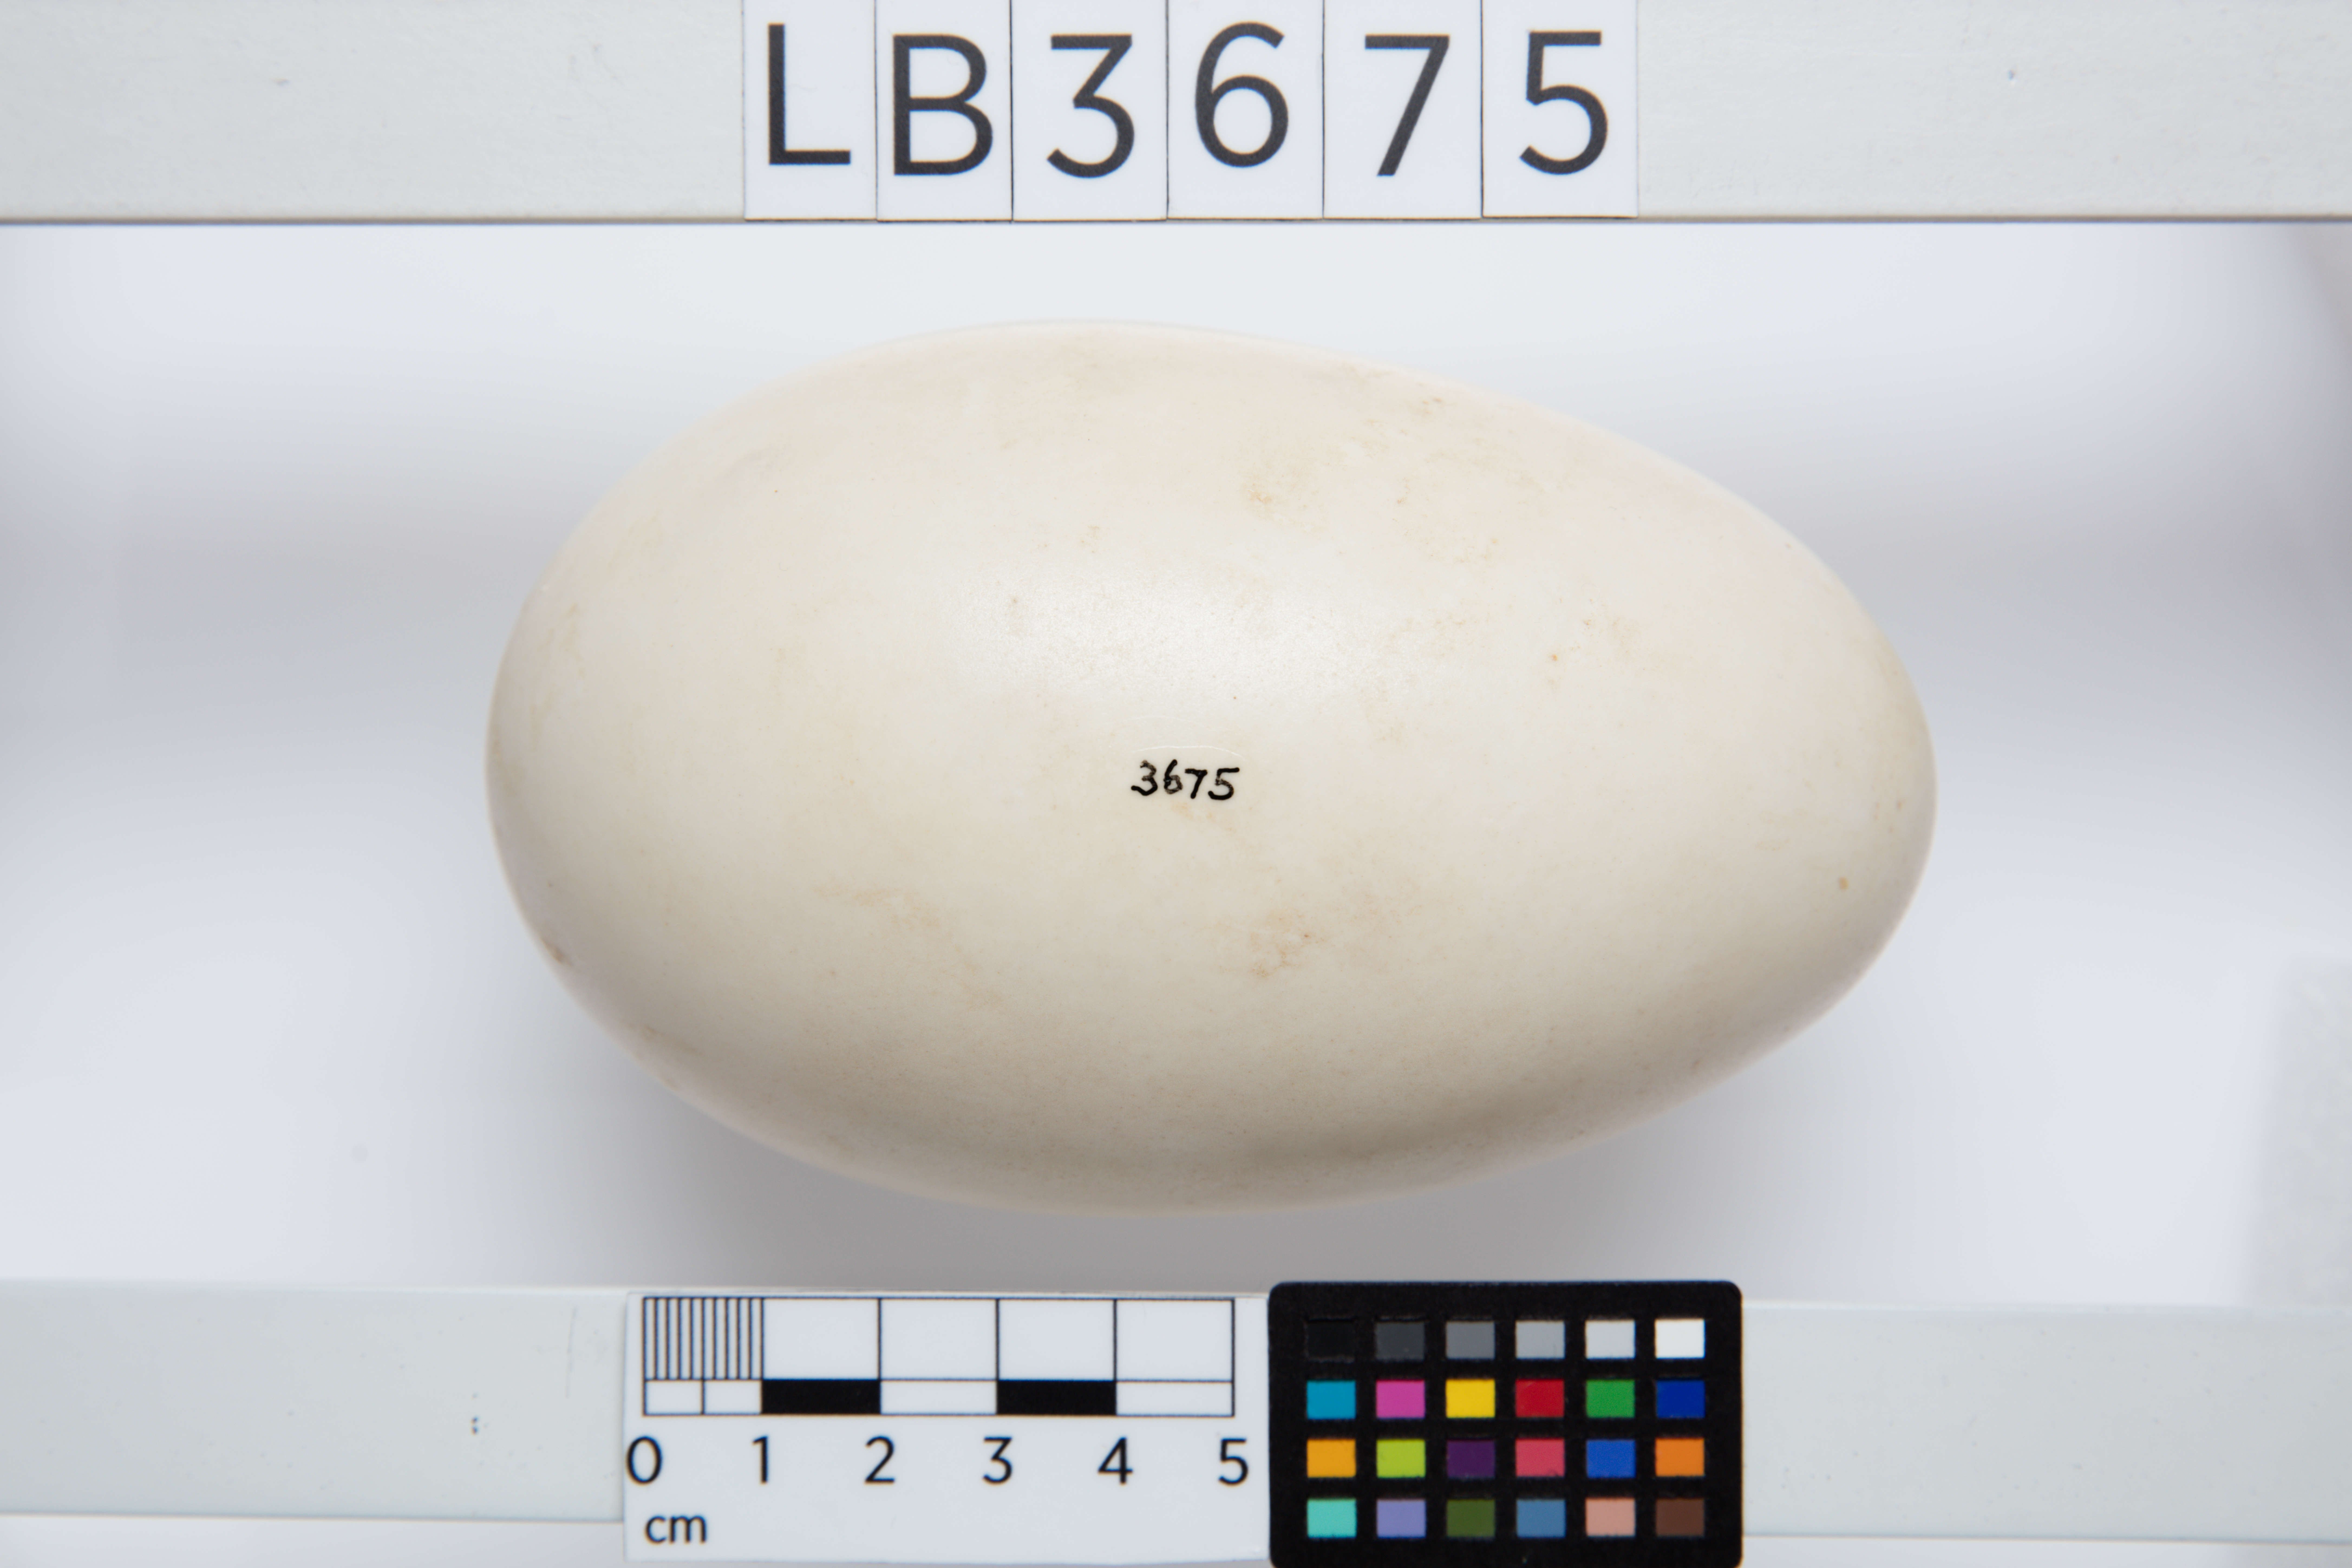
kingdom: Animalia
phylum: Chordata
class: Aves
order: Apterygiformes
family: Apterygidae
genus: Apteryx
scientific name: Apteryx mantelli
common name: North island brown kiwi
